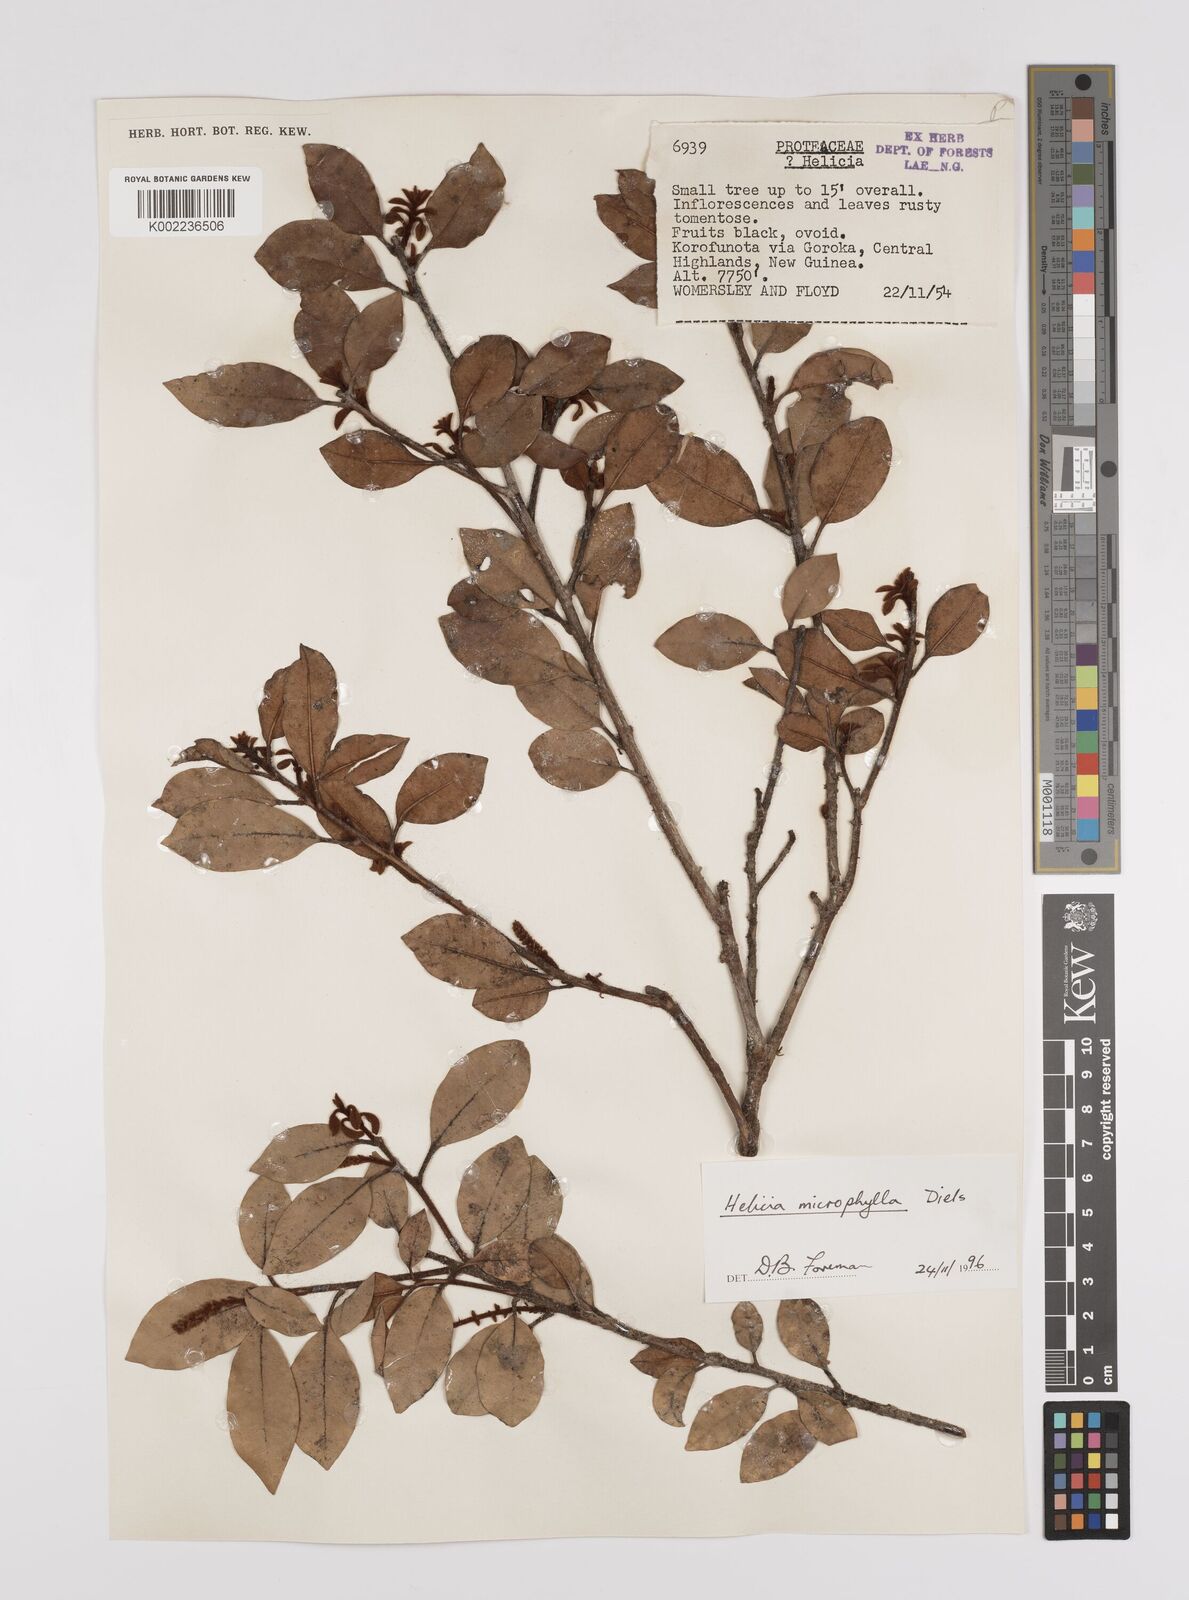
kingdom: Plantae
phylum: Tracheophyta
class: Magnoliopsida
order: Proteales
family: Proteaceae
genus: Helicia
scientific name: Helicia microphylla
